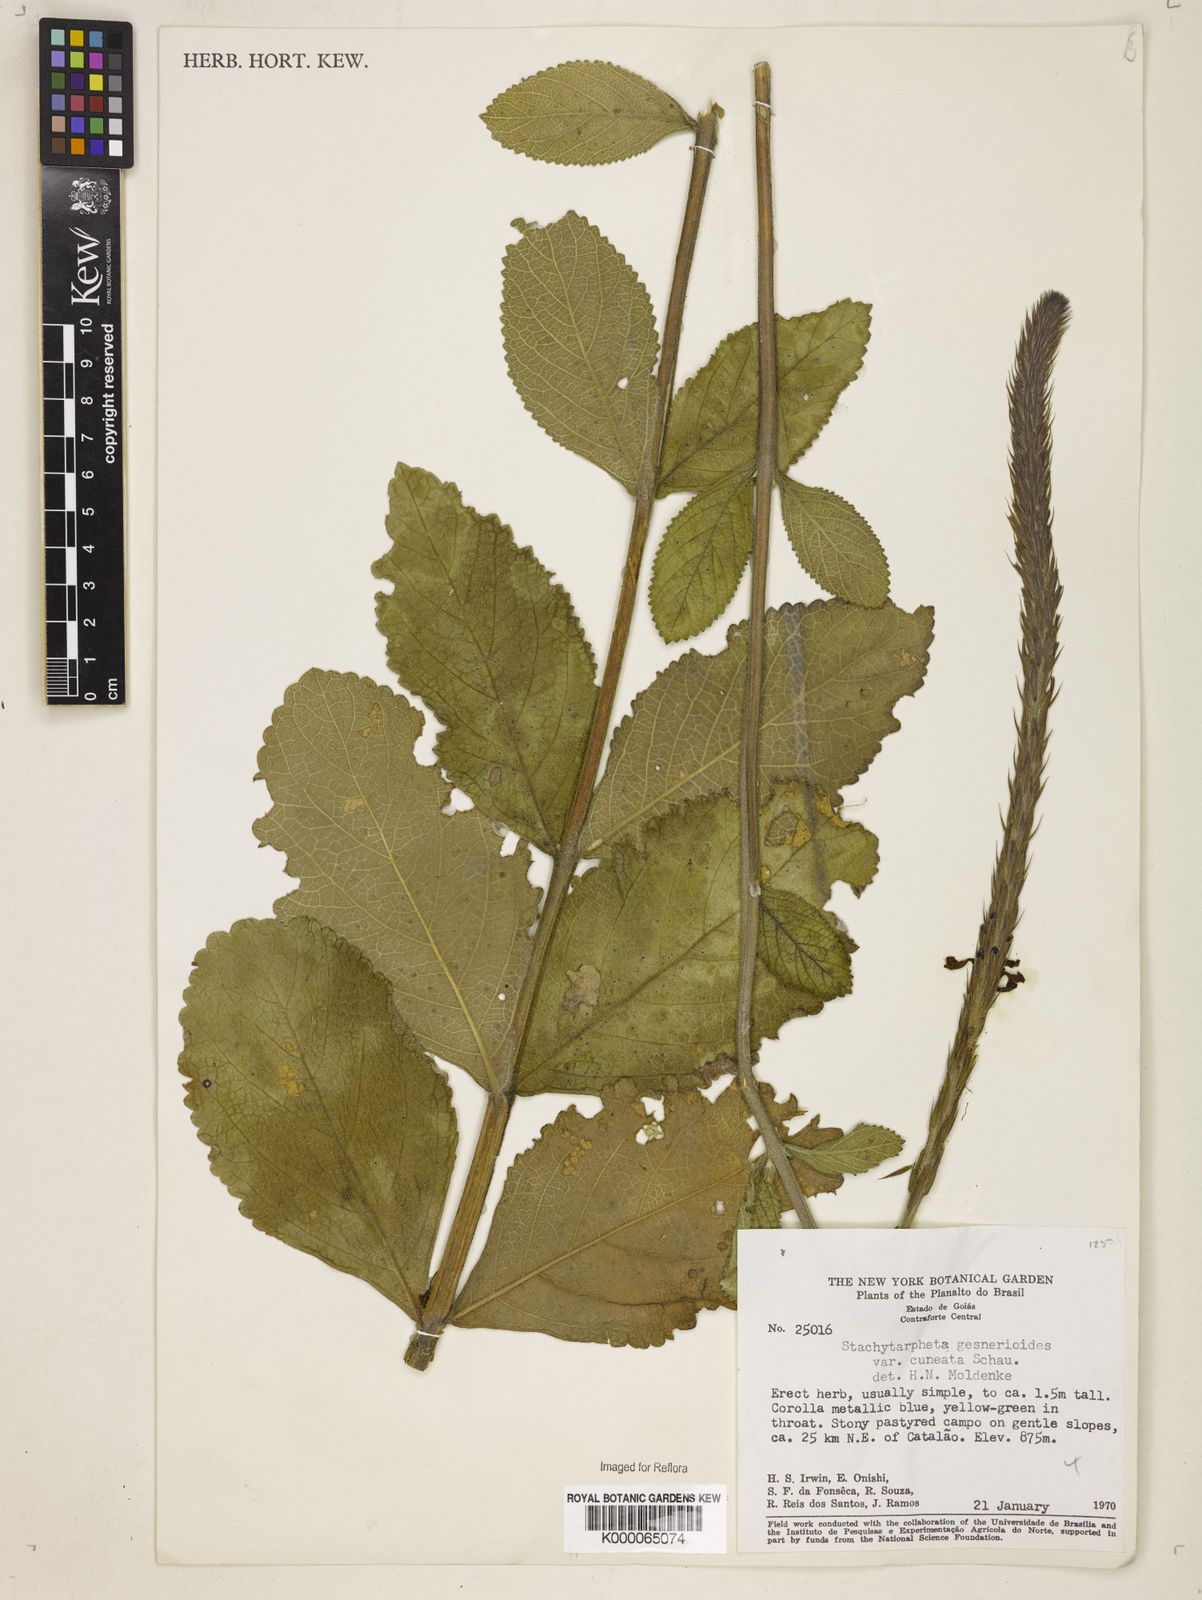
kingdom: Plantae
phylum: Tracheophyta
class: Magnoliopsida
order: Lamiales
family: Verbenaceae
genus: Stachytarpheta
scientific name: Stachytarpheta gesnerioides
